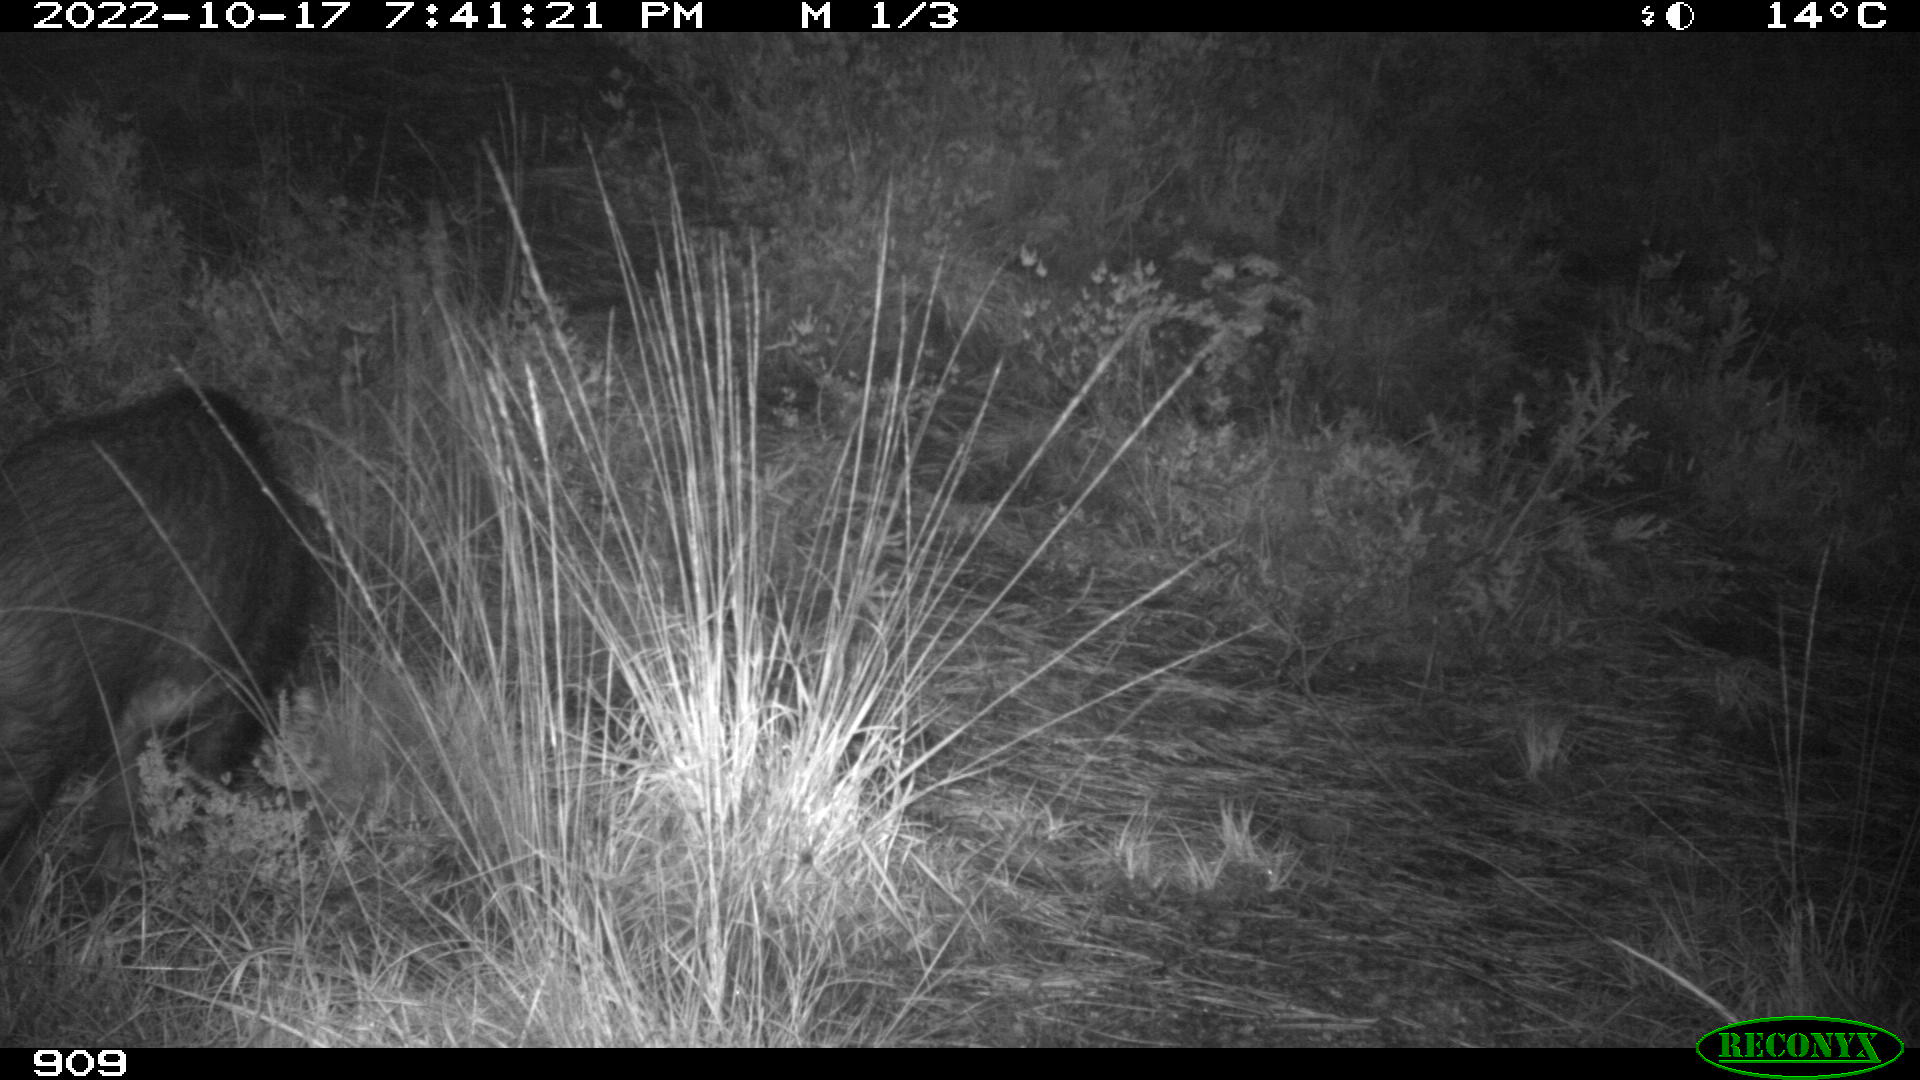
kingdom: Animalia
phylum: Chordata
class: Mammalia
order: Artiodactyla
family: Suidae
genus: Sus
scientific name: Sus scrofa
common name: Wild boar
